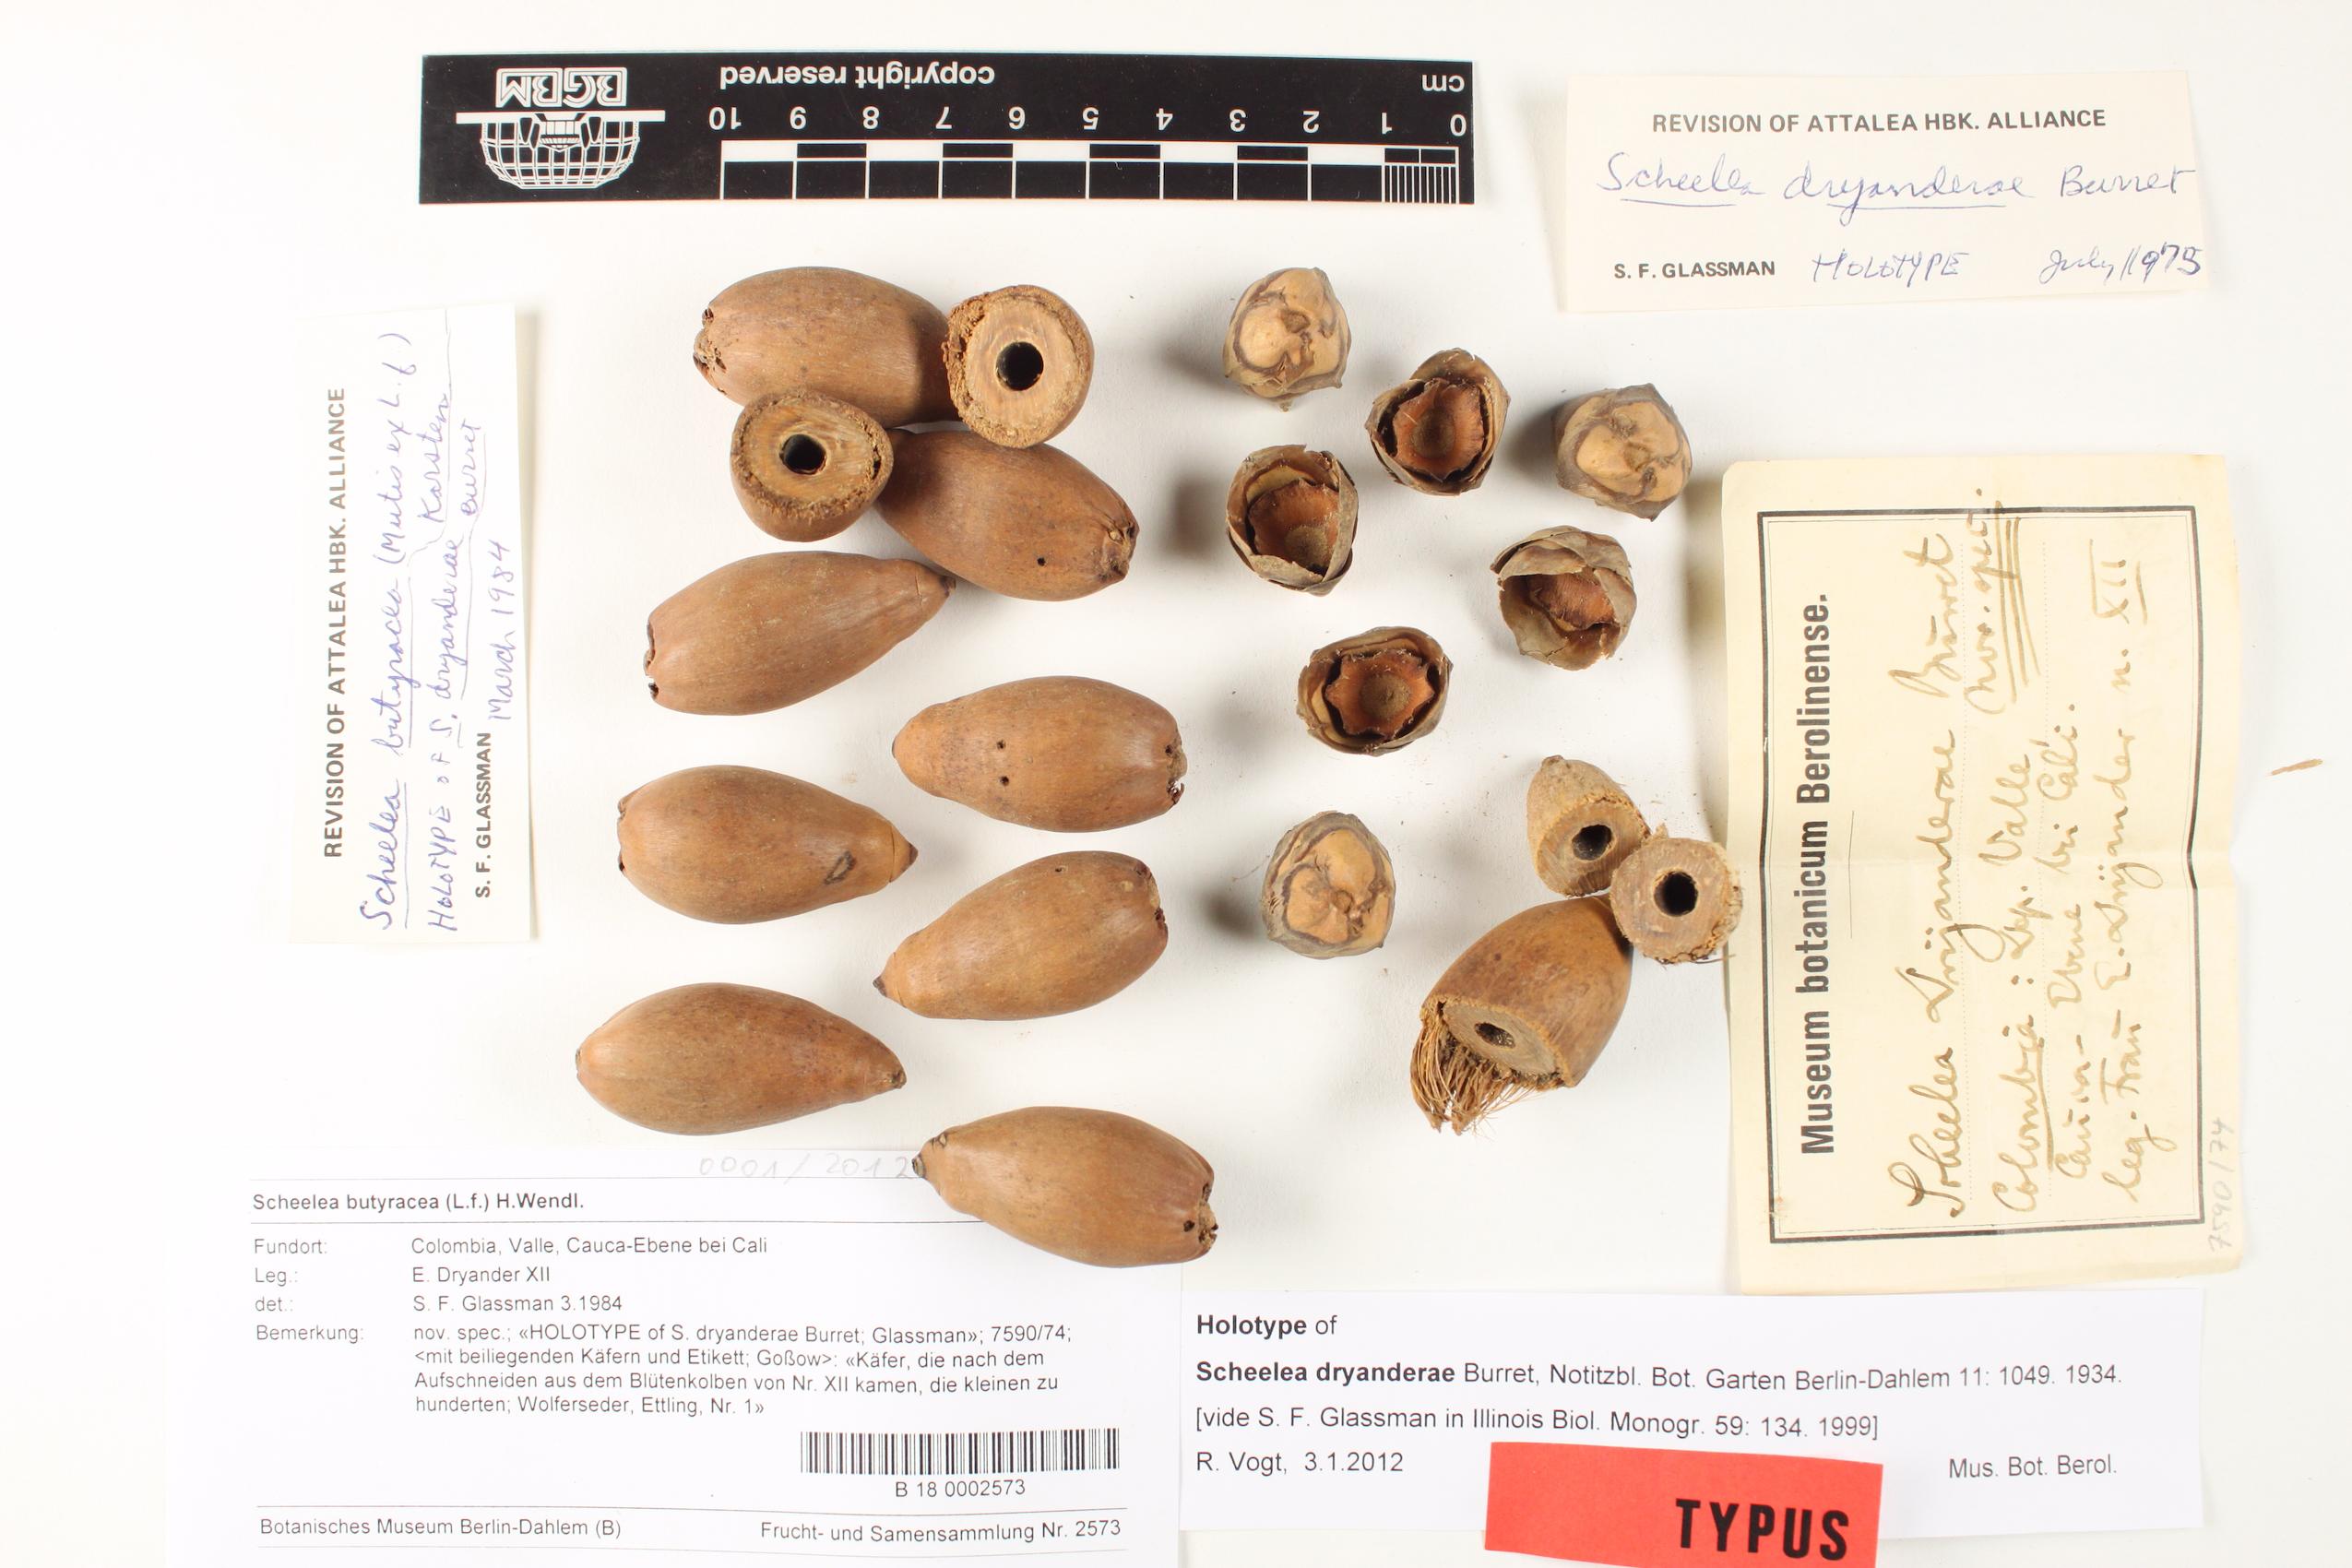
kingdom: Plantae
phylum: Tracheophyta
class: Liliopsida
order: Arecales
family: Arecaceae
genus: Attalea
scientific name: Attalea butyracea
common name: Kuakish
